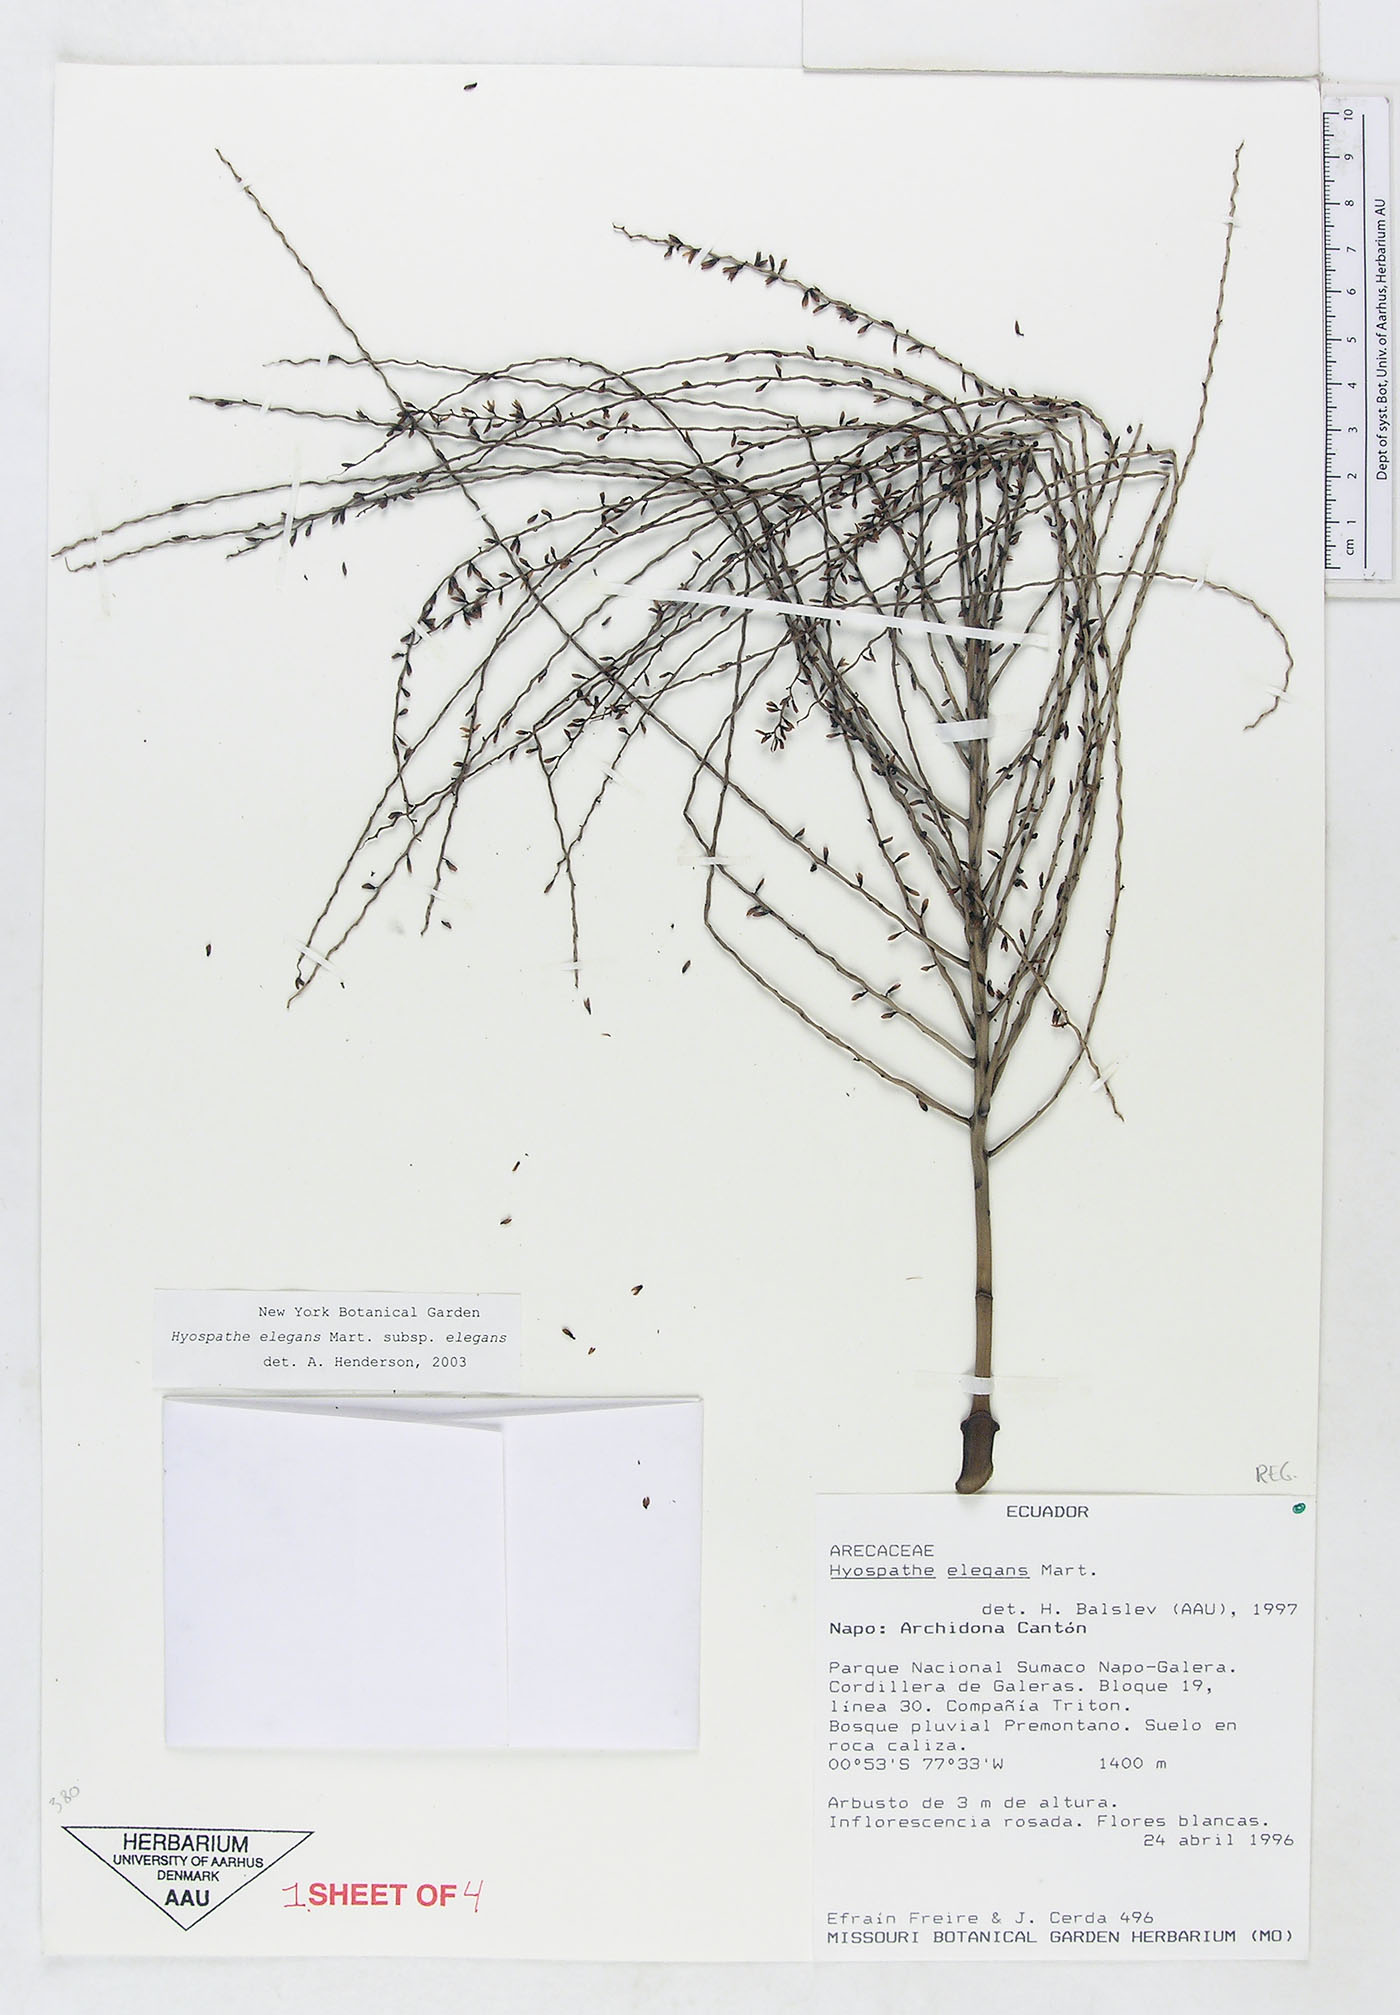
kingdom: Plantae
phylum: Tracheophyta
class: Liliopsida
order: Arecales
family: Arecaceae
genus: Hyospathe
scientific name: Hyospathe elegans
